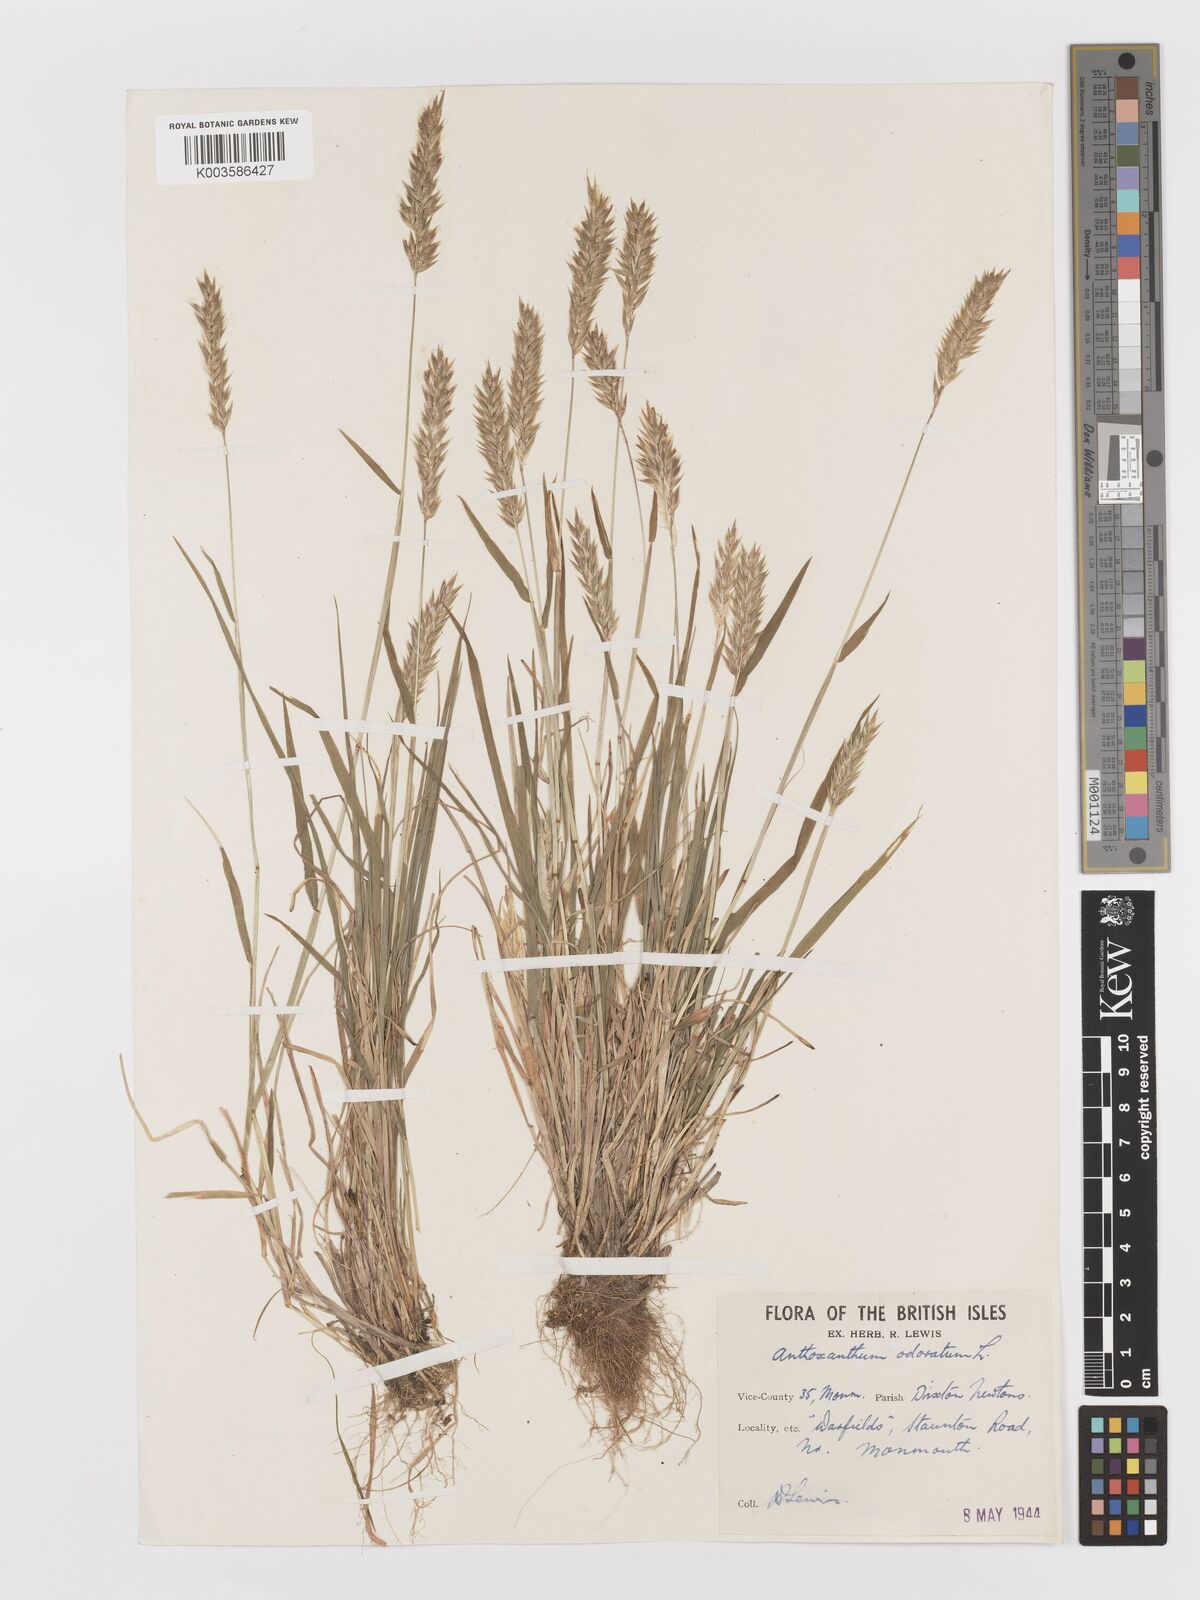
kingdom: Plantae
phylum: Tracheophyta
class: Liliopsida
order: Poales
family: Poaceae
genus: Anthoxanthum
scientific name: Anthoxanthum odoratum
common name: Sweet vernalgrass
